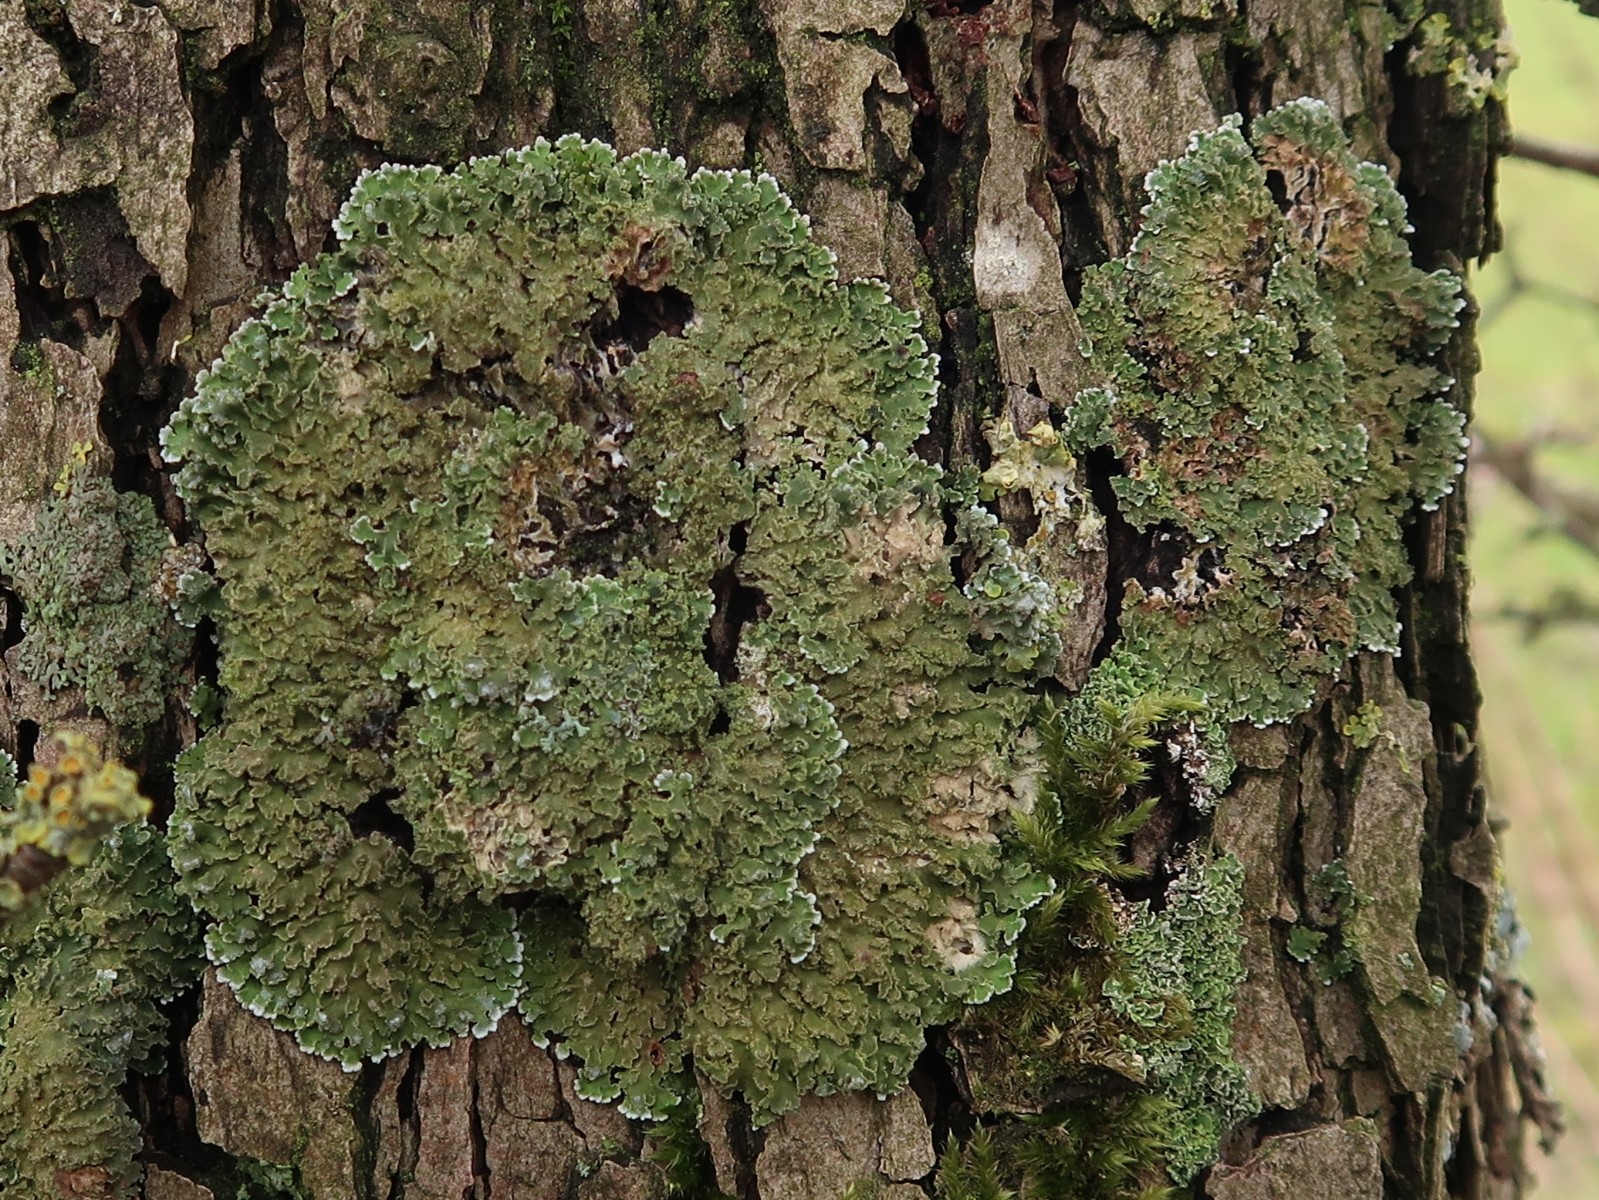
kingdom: Fungi
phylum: Ascomycota
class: Lecanoromycetes
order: Caliciales
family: Physciaceae
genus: Physconia
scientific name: Physconia perisidiosa
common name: liden dugrosetlav
